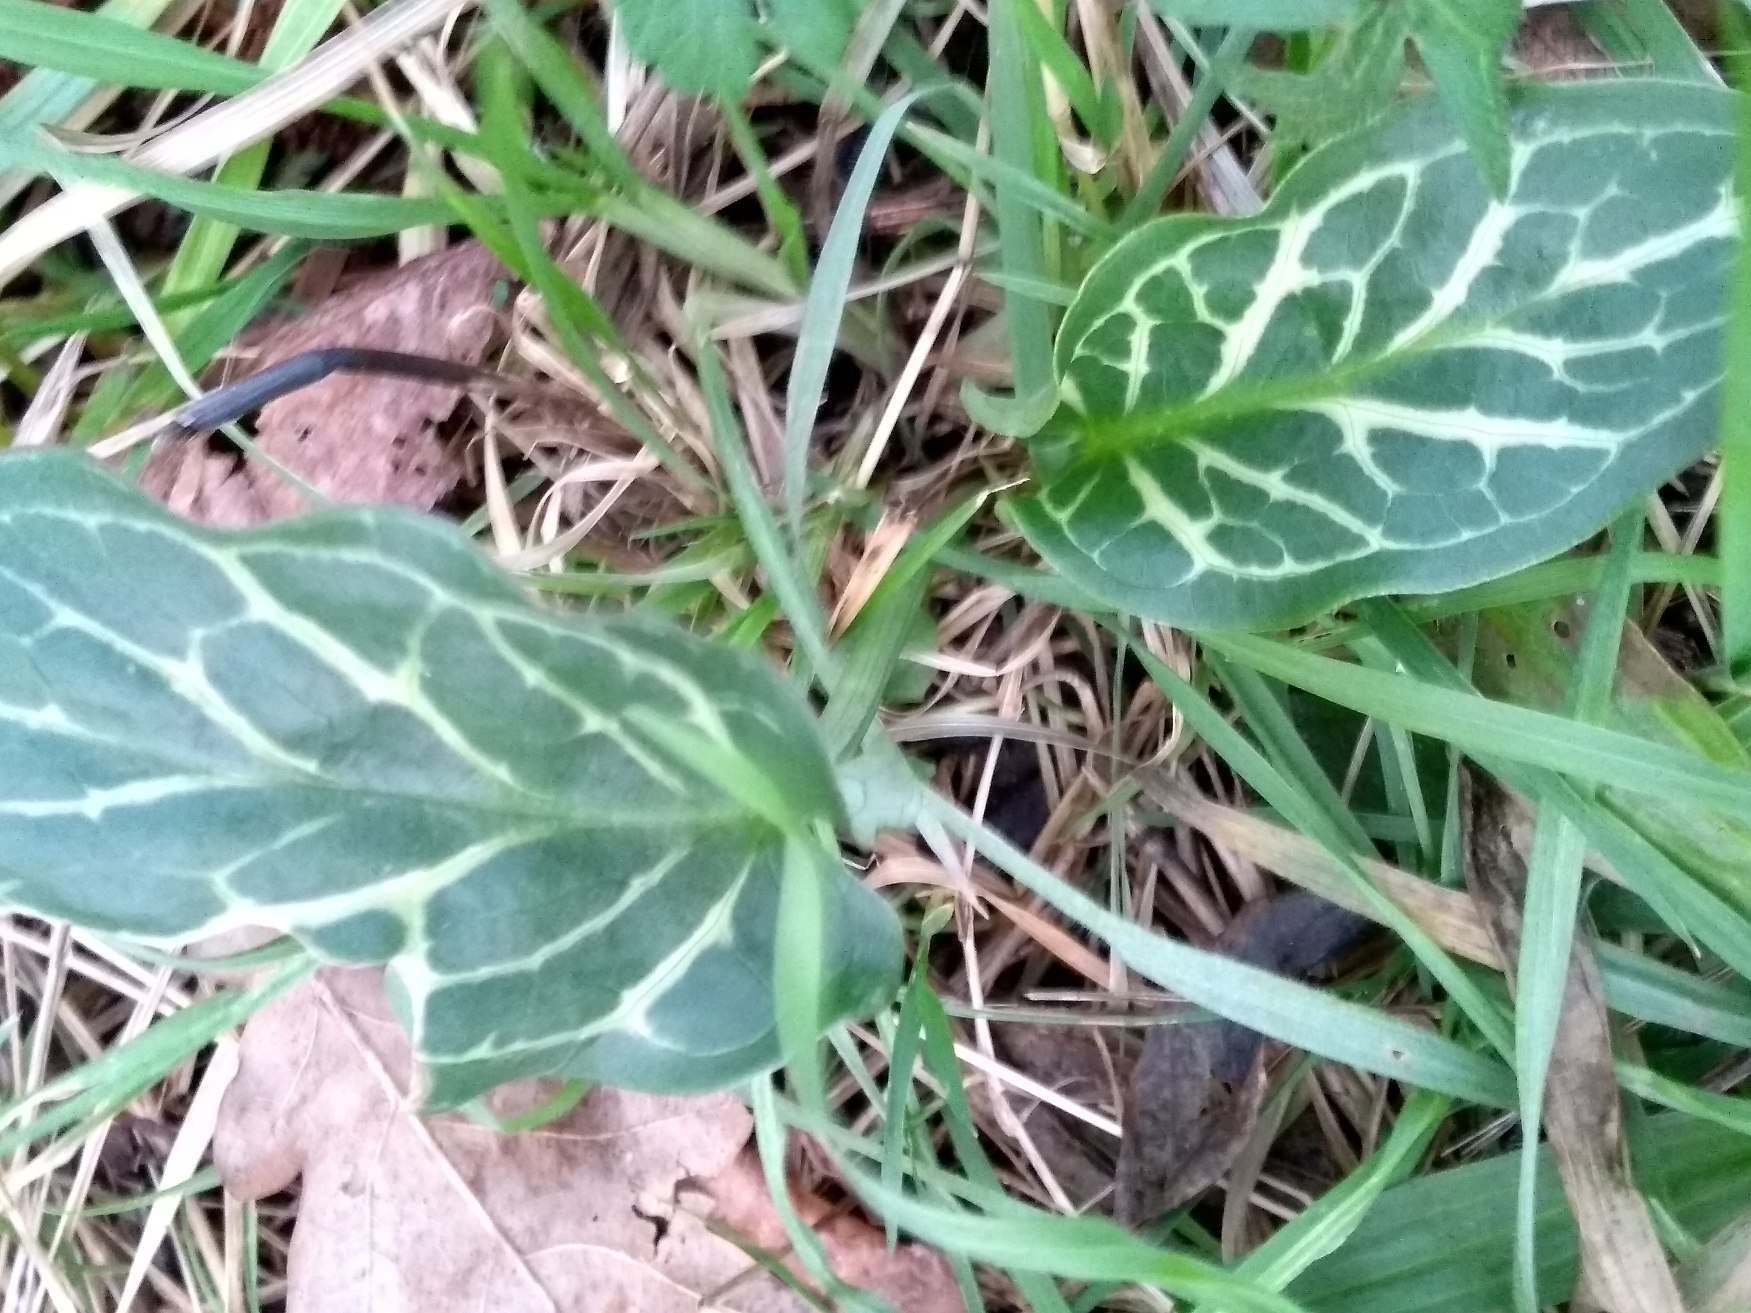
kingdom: Plantae
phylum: Tracheophyta
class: Liliopsida
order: Alismatales
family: Araceae
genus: Arum
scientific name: Arum italicum
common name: Italiensk arum
